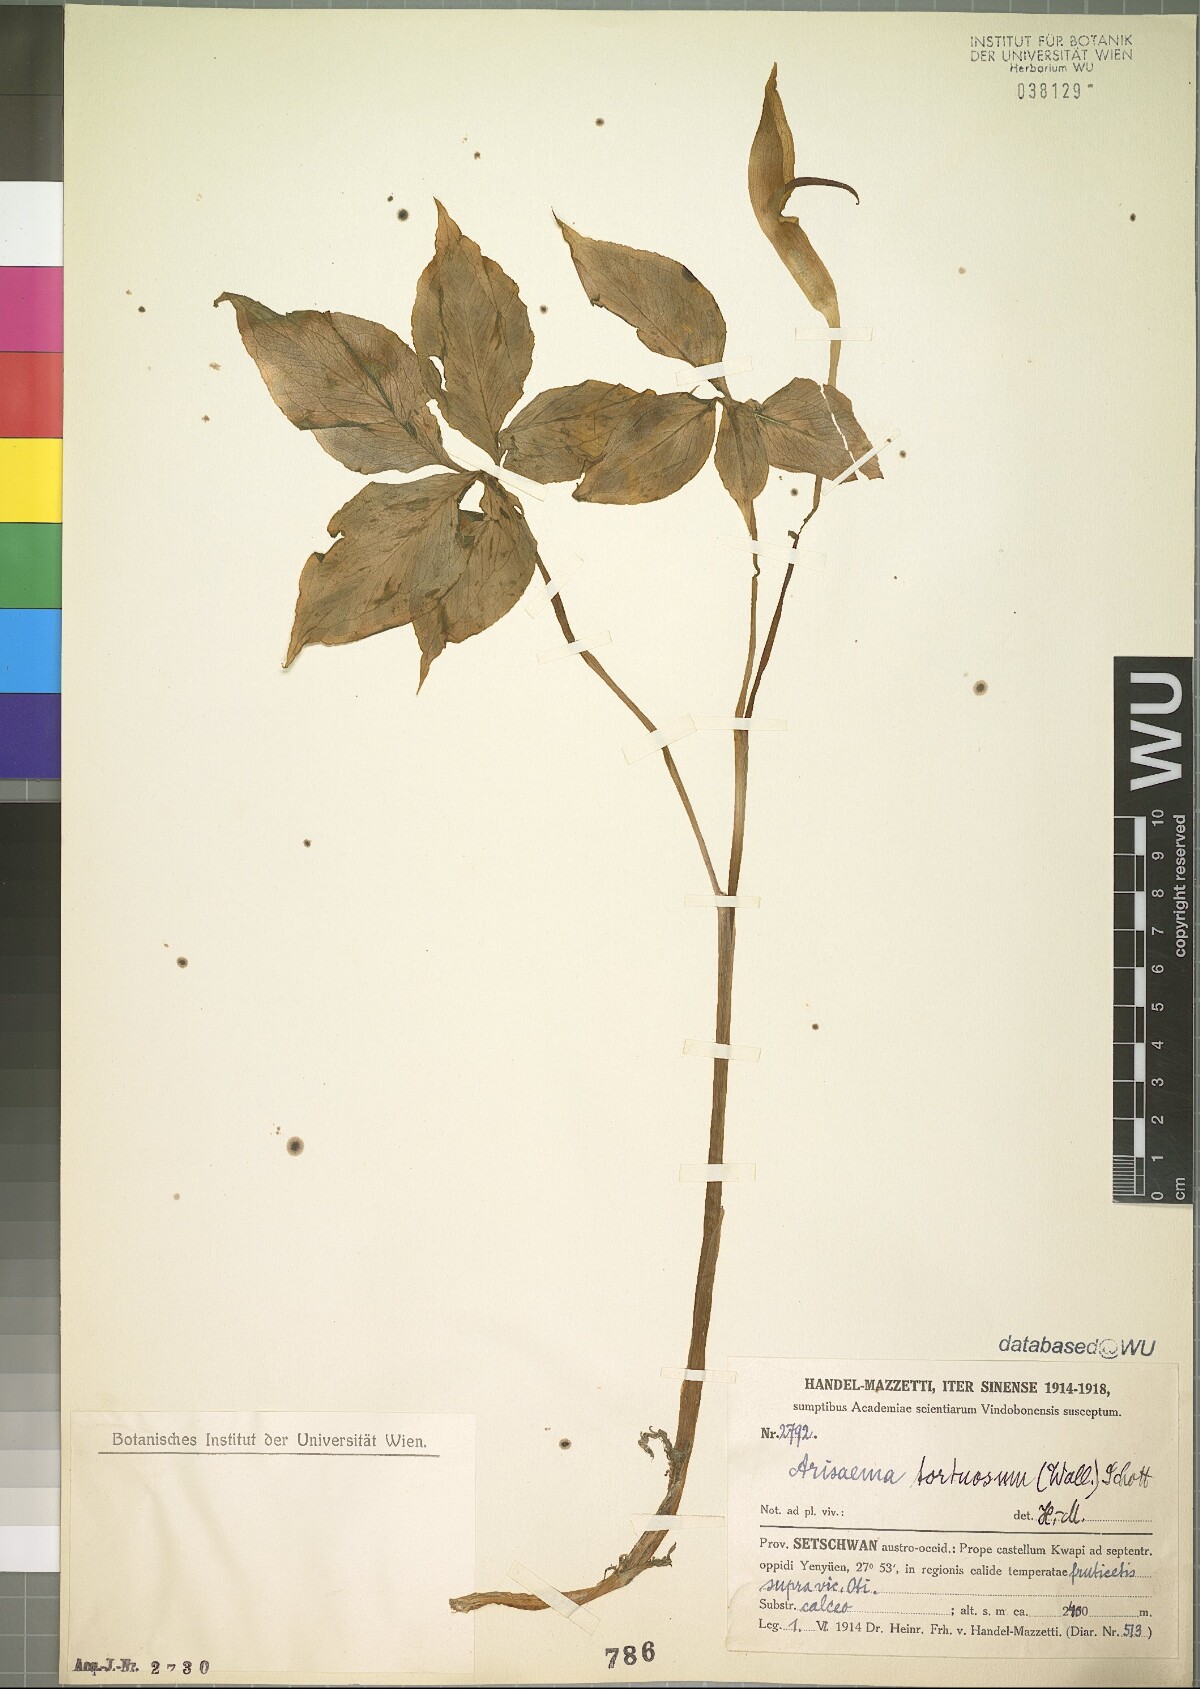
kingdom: Plantae
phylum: Tracheophyta
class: Liliopsida
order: Alismatales
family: Araceae
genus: Arisaema
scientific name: Arisaema tortuosum
